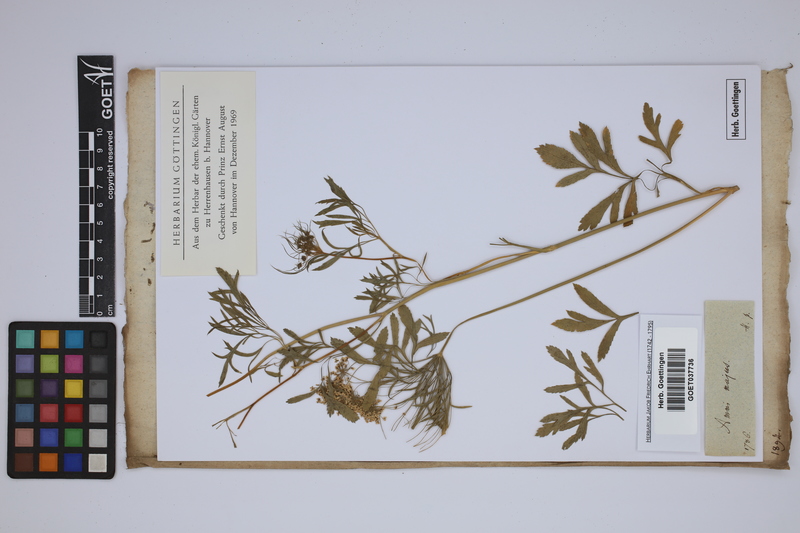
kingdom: Plantae
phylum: Tracheophyta
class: Magnoliopsida
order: Apiales
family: Apiaceae
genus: Ammi
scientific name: Ammi majus
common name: Bullwort
